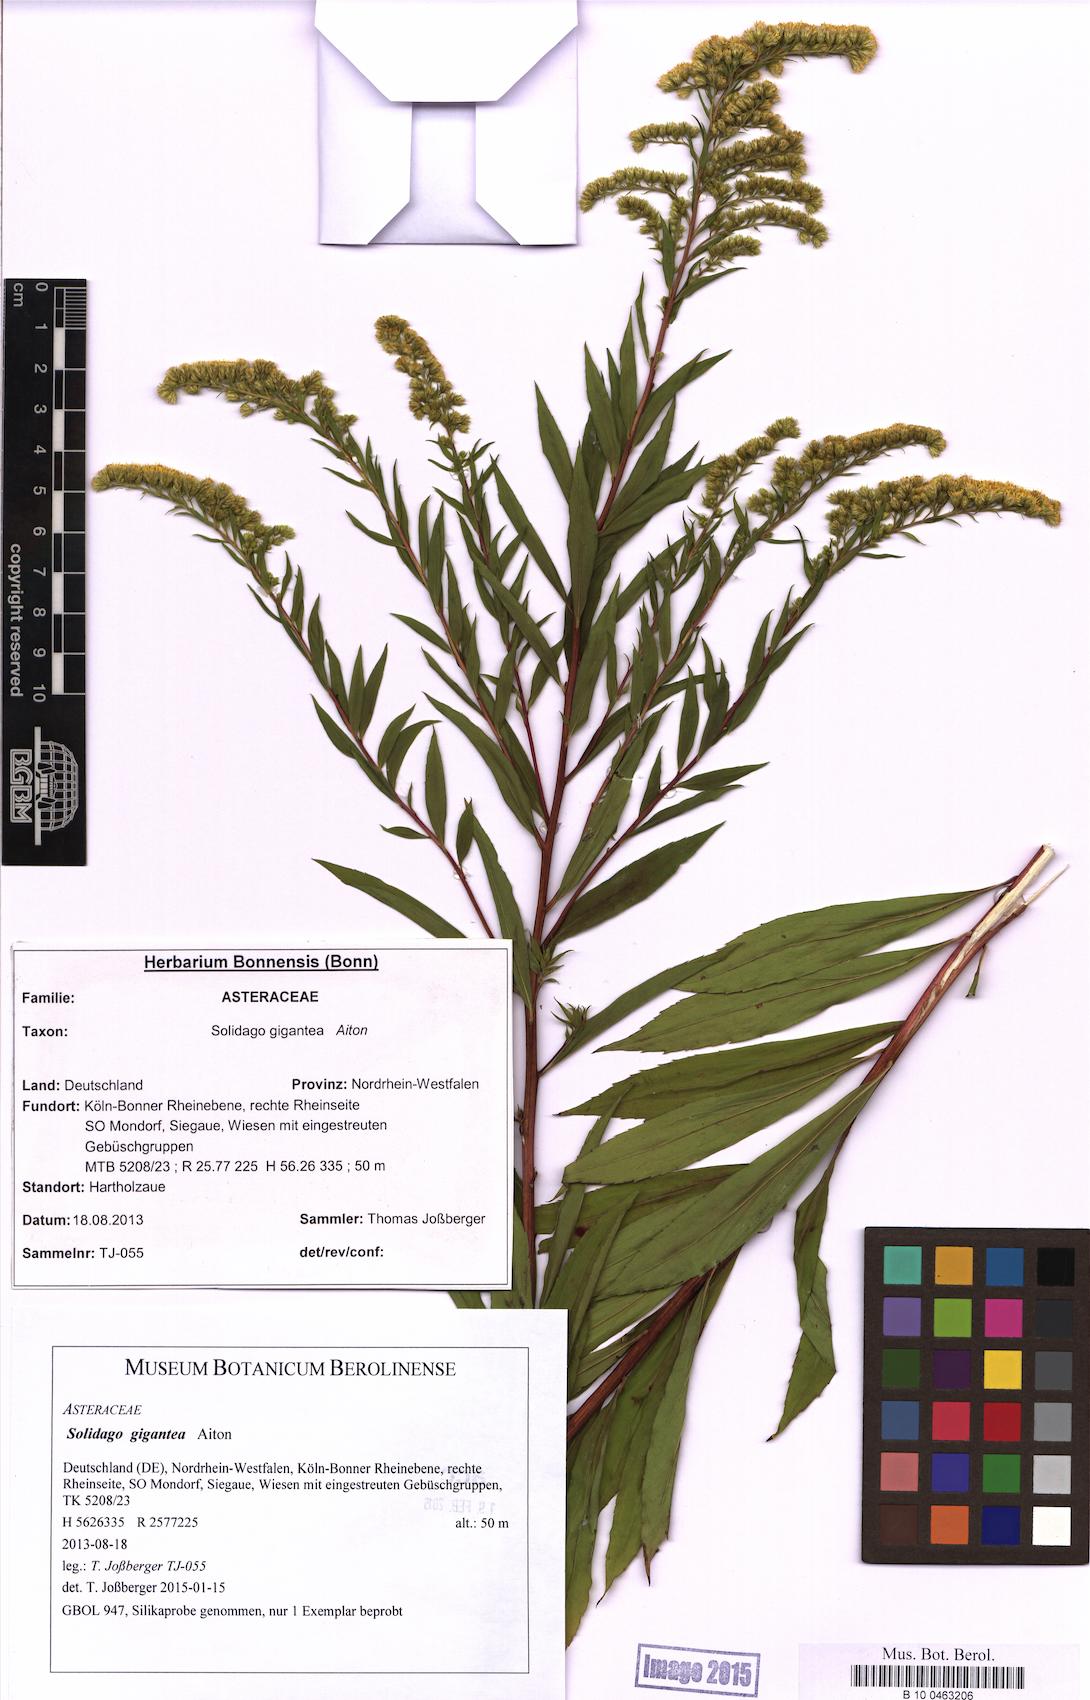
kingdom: Plantae
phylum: Tracheophyta
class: Magnoliopsida
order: Asterales
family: Asteraceae
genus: Solidago
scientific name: Solidago gigantea
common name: Giant goldenrod
